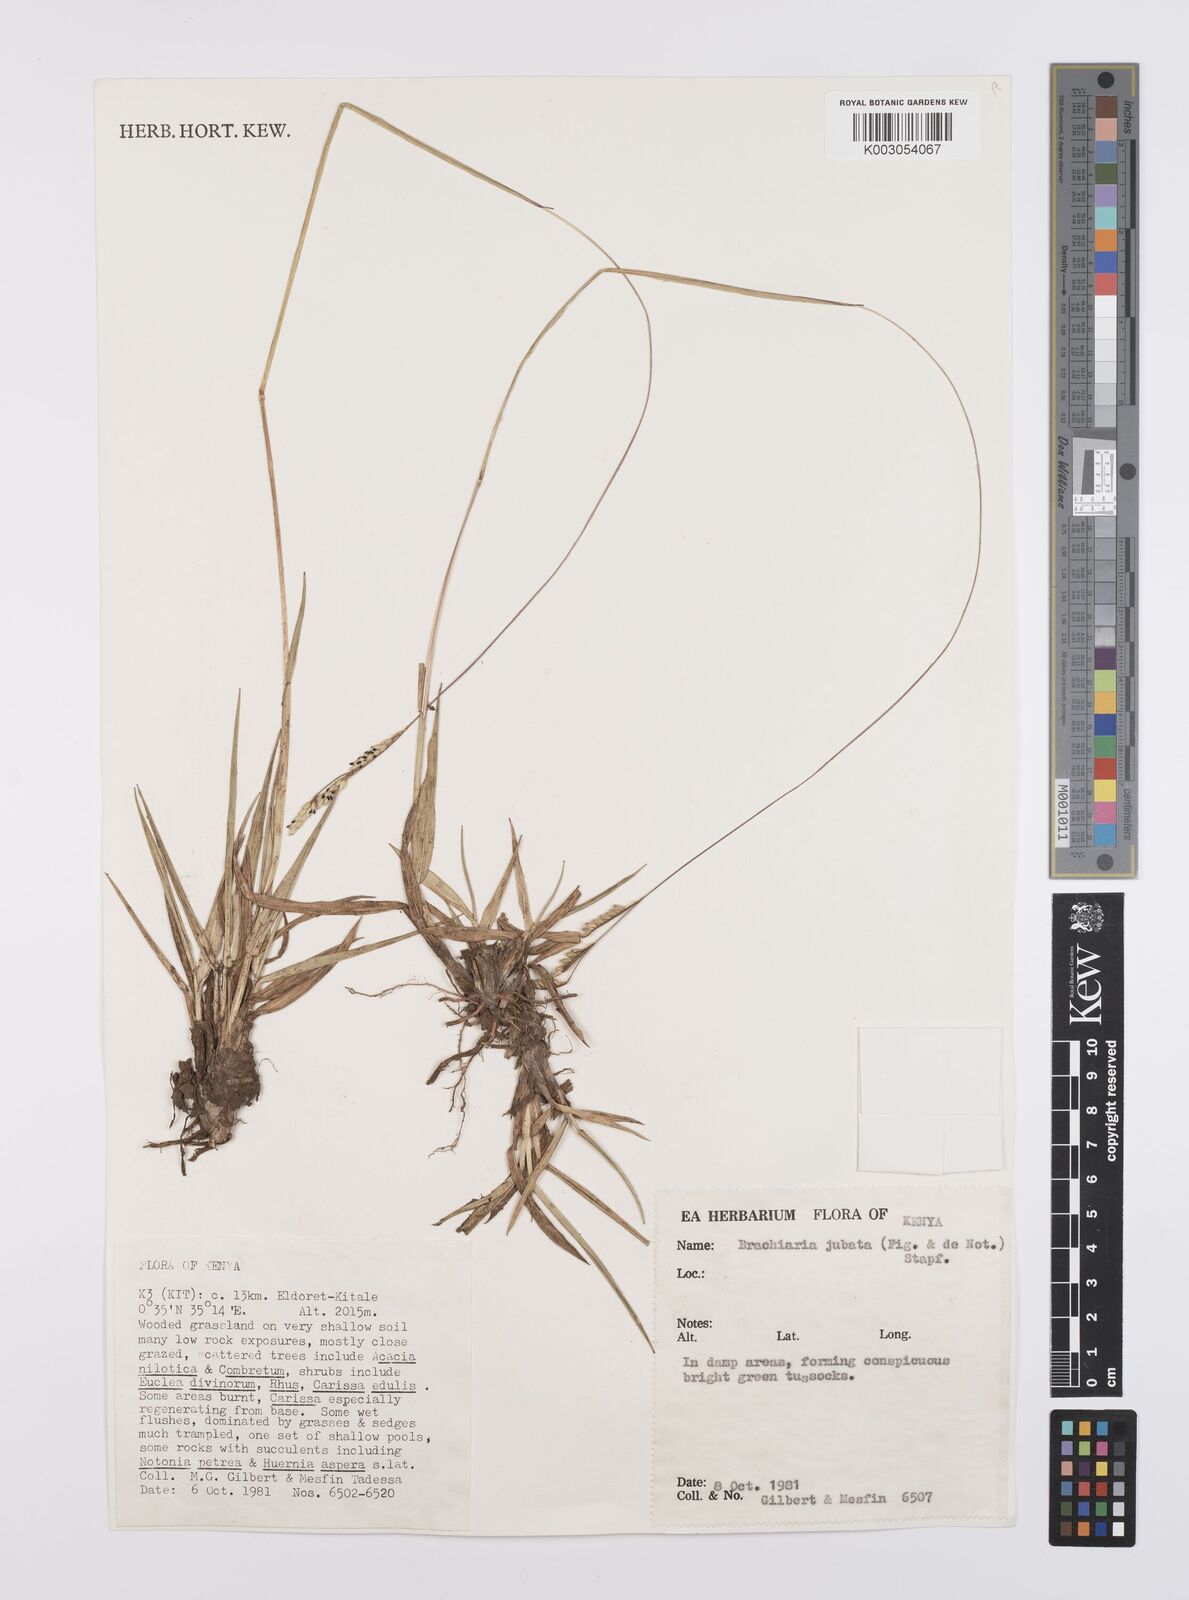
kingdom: Plantae
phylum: Tracheophyta
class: Liliopsida
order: Poales
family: Poaceae
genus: Urochloa
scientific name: Urochloa jubata
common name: Buffalograss
